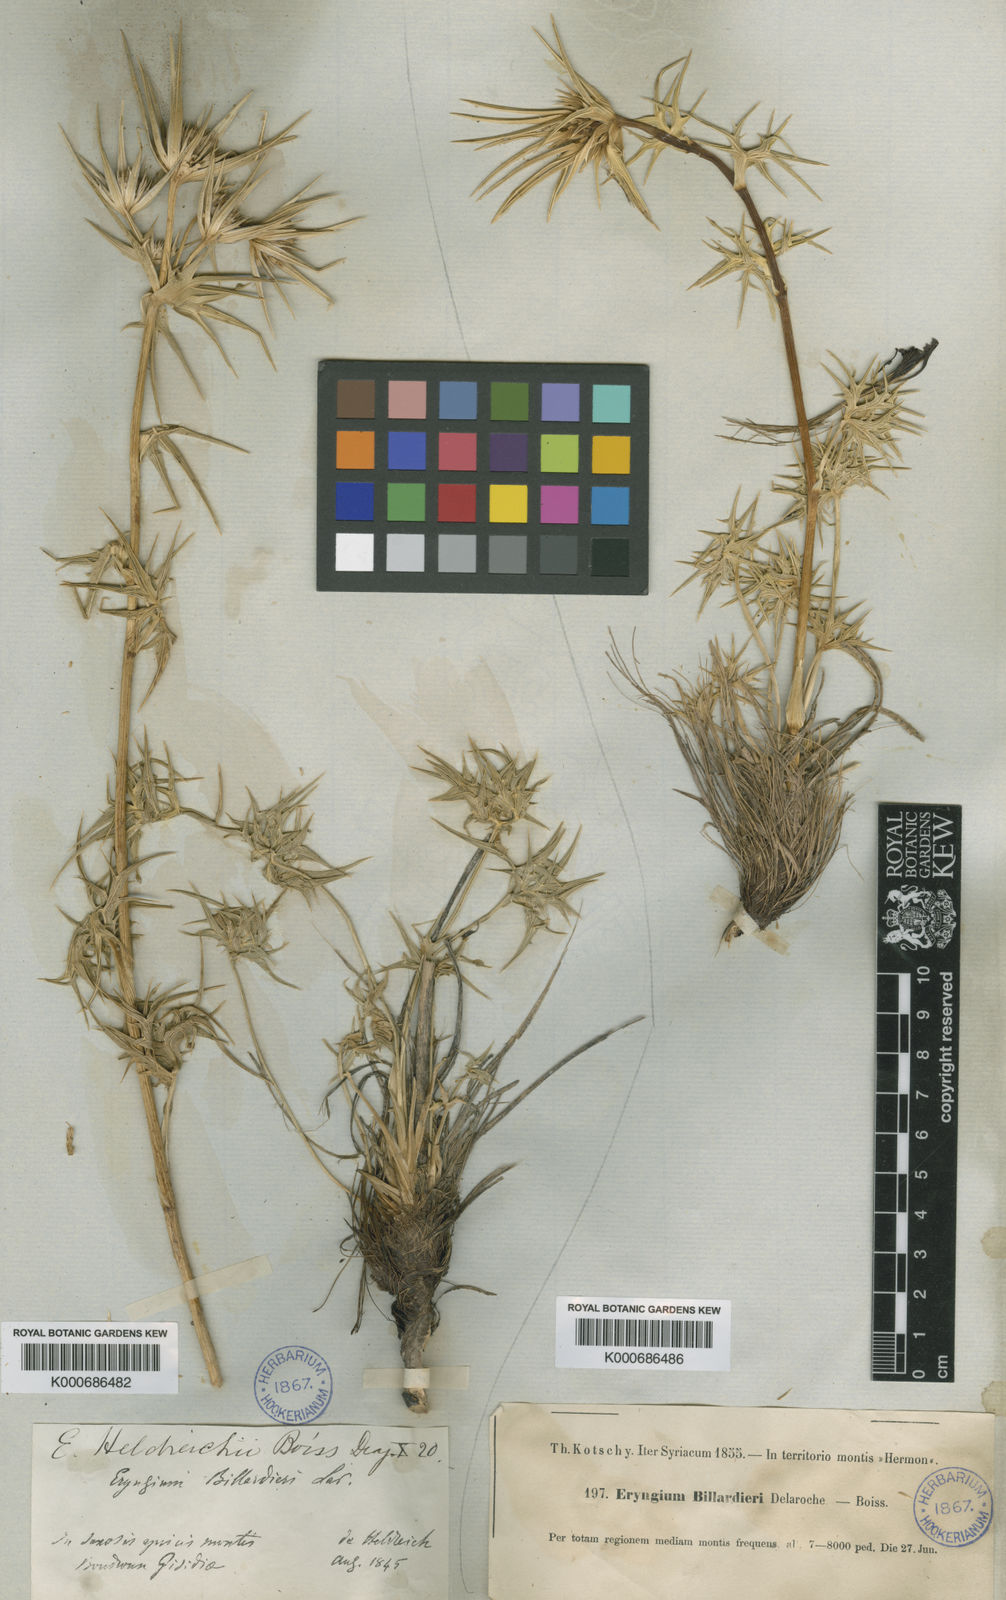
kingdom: Plantae
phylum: Tracheophyta
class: Magnoliopsida
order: Apiales
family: Apiaceae
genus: Eryngium
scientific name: Eryngium heldreichii
